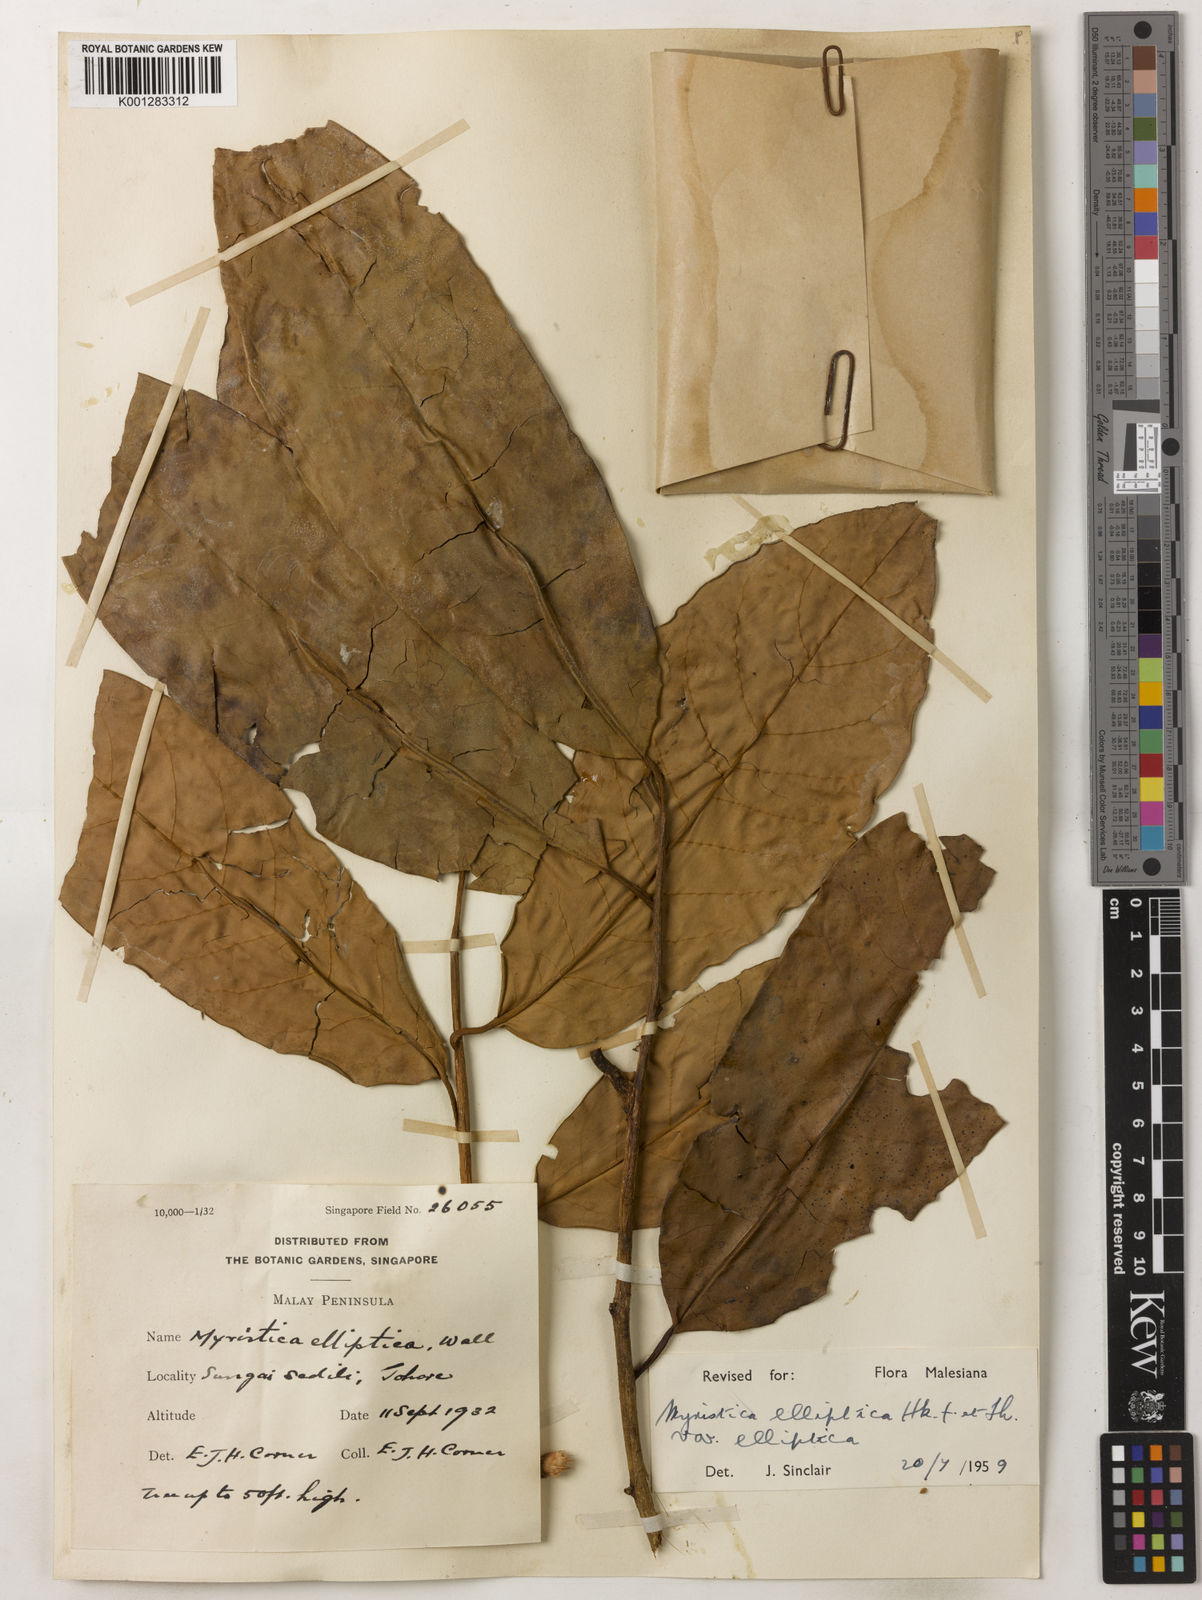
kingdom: Plantae
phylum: Tracheophyta
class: Magnoliopsida
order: Magnoliales
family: Myristicaceae
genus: Myristica
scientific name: Myristica elliptica
